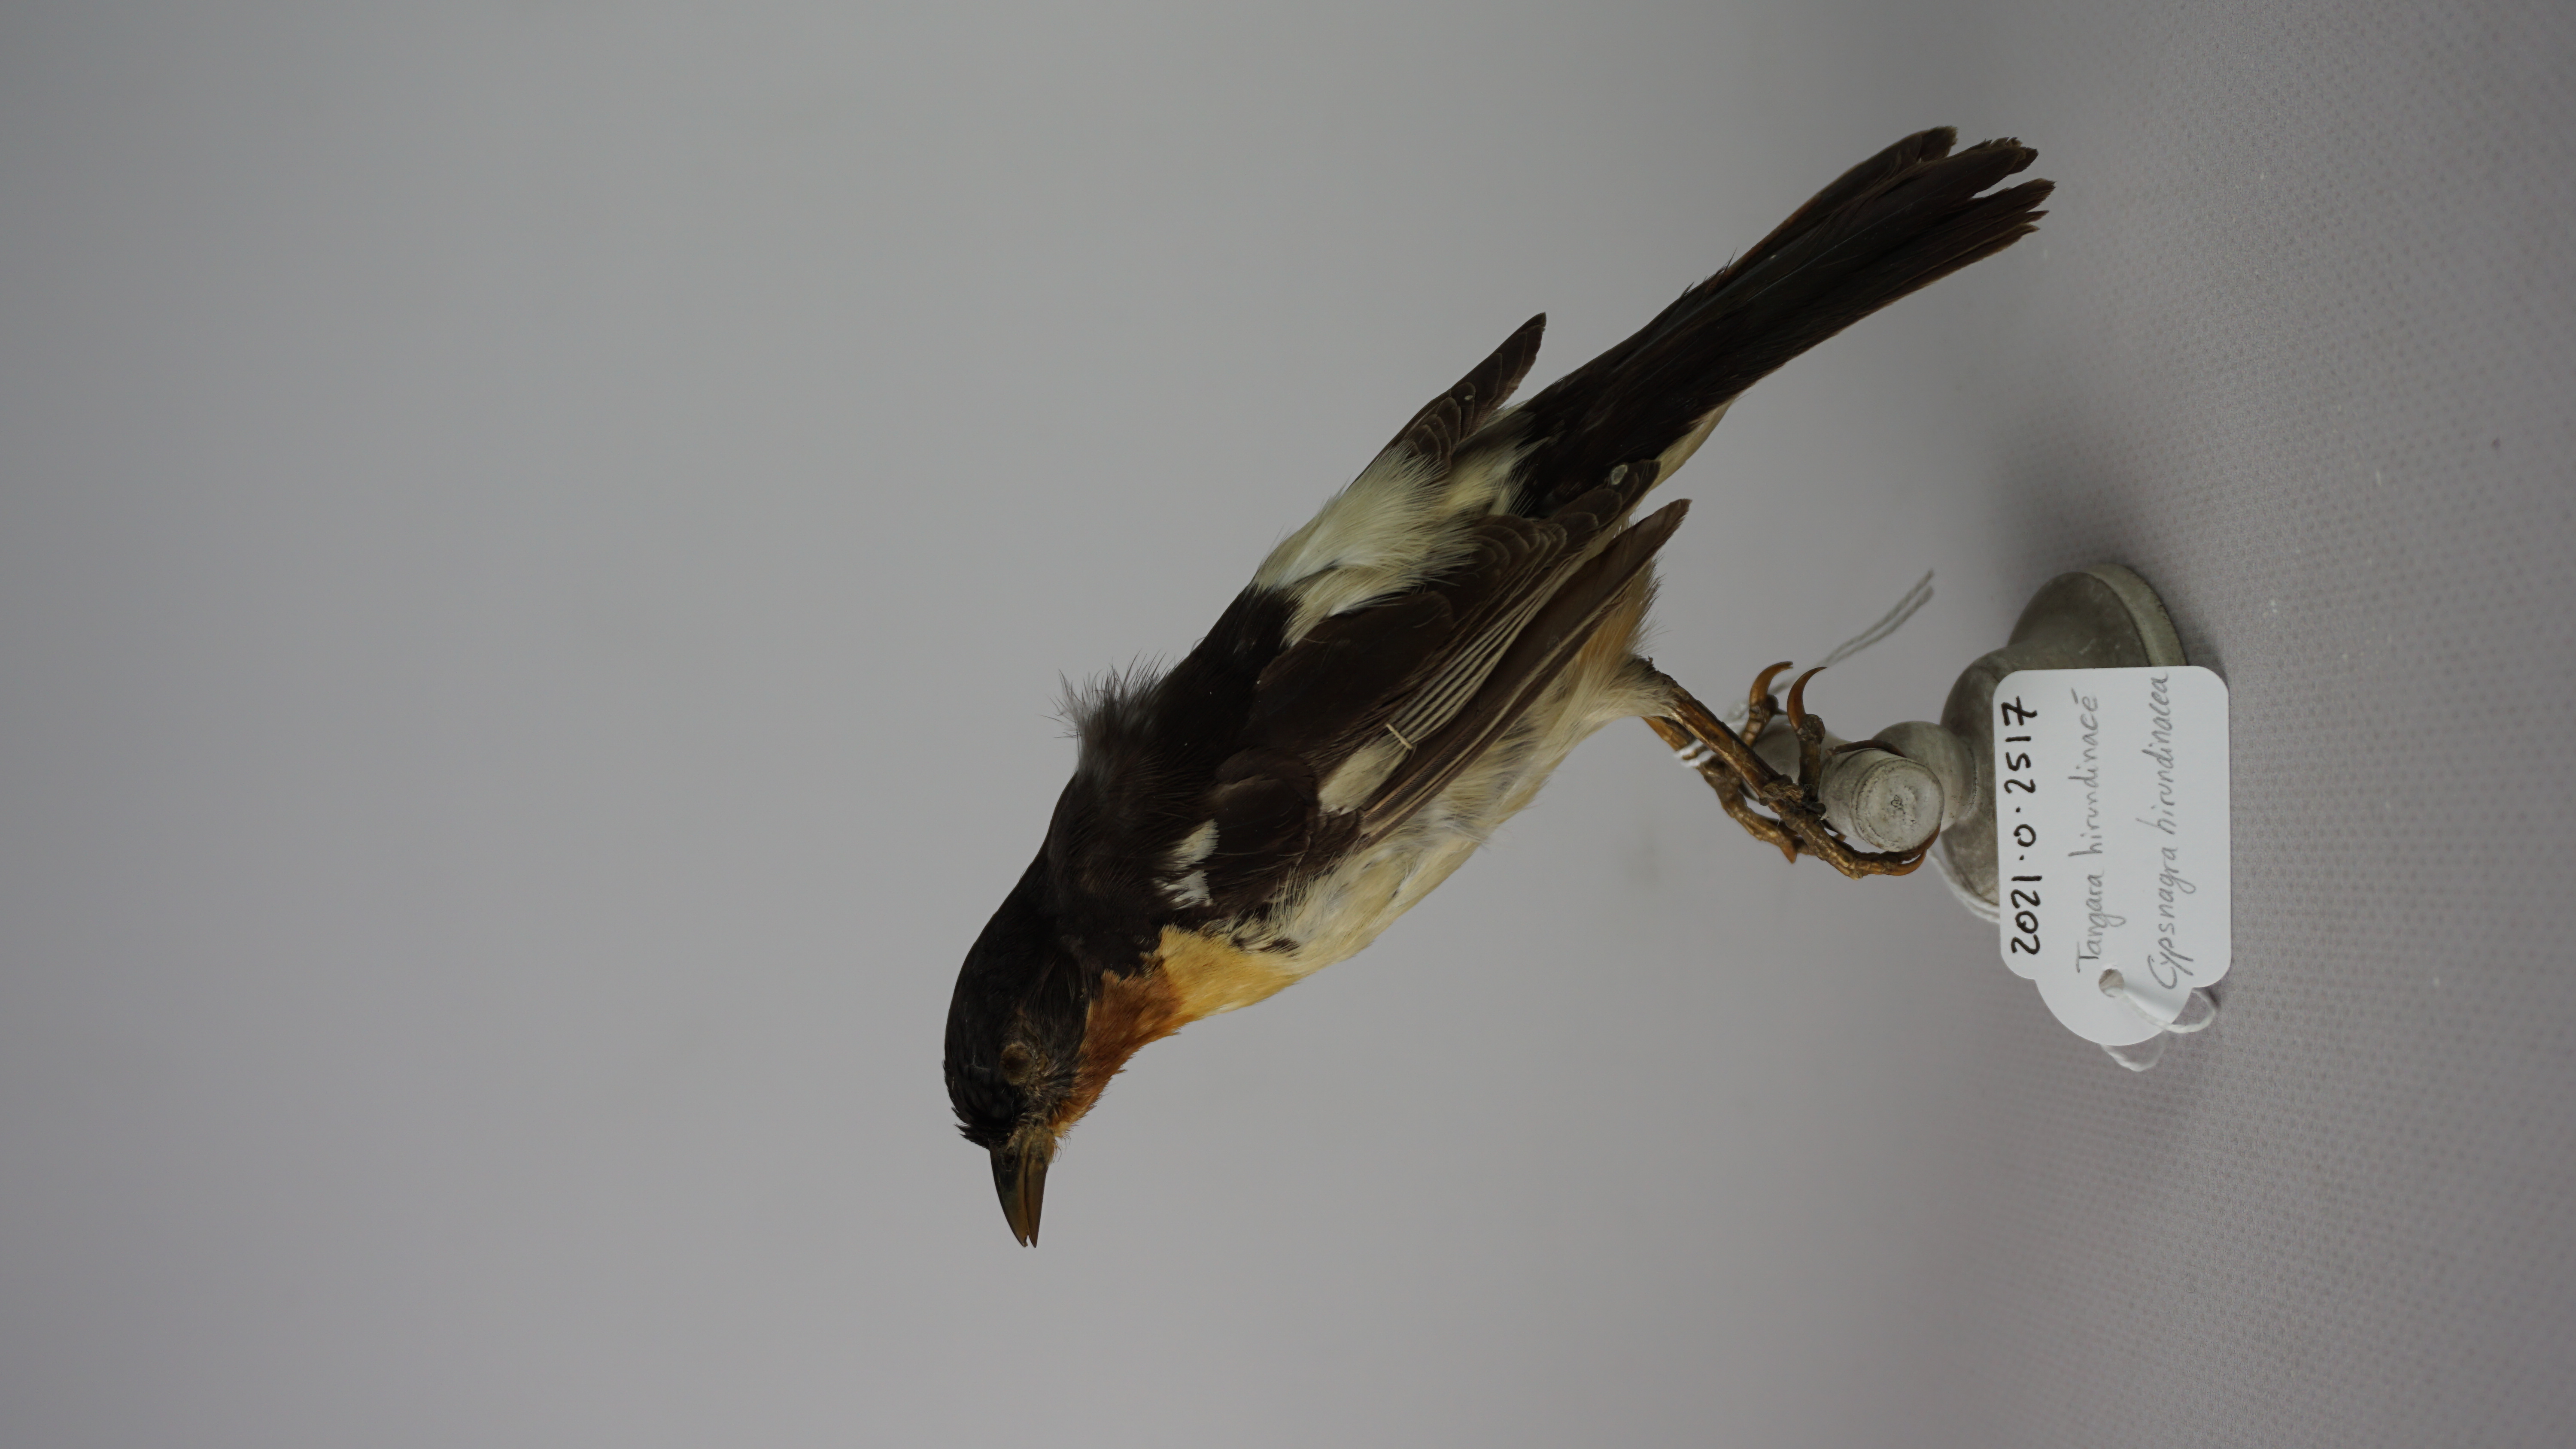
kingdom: Animalia
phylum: Chordata
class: Aves
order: Passeriformes
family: Thraupidae
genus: Cypsnagra
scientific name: Cypsnagra hirundinacea
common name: White-rumped tanager
